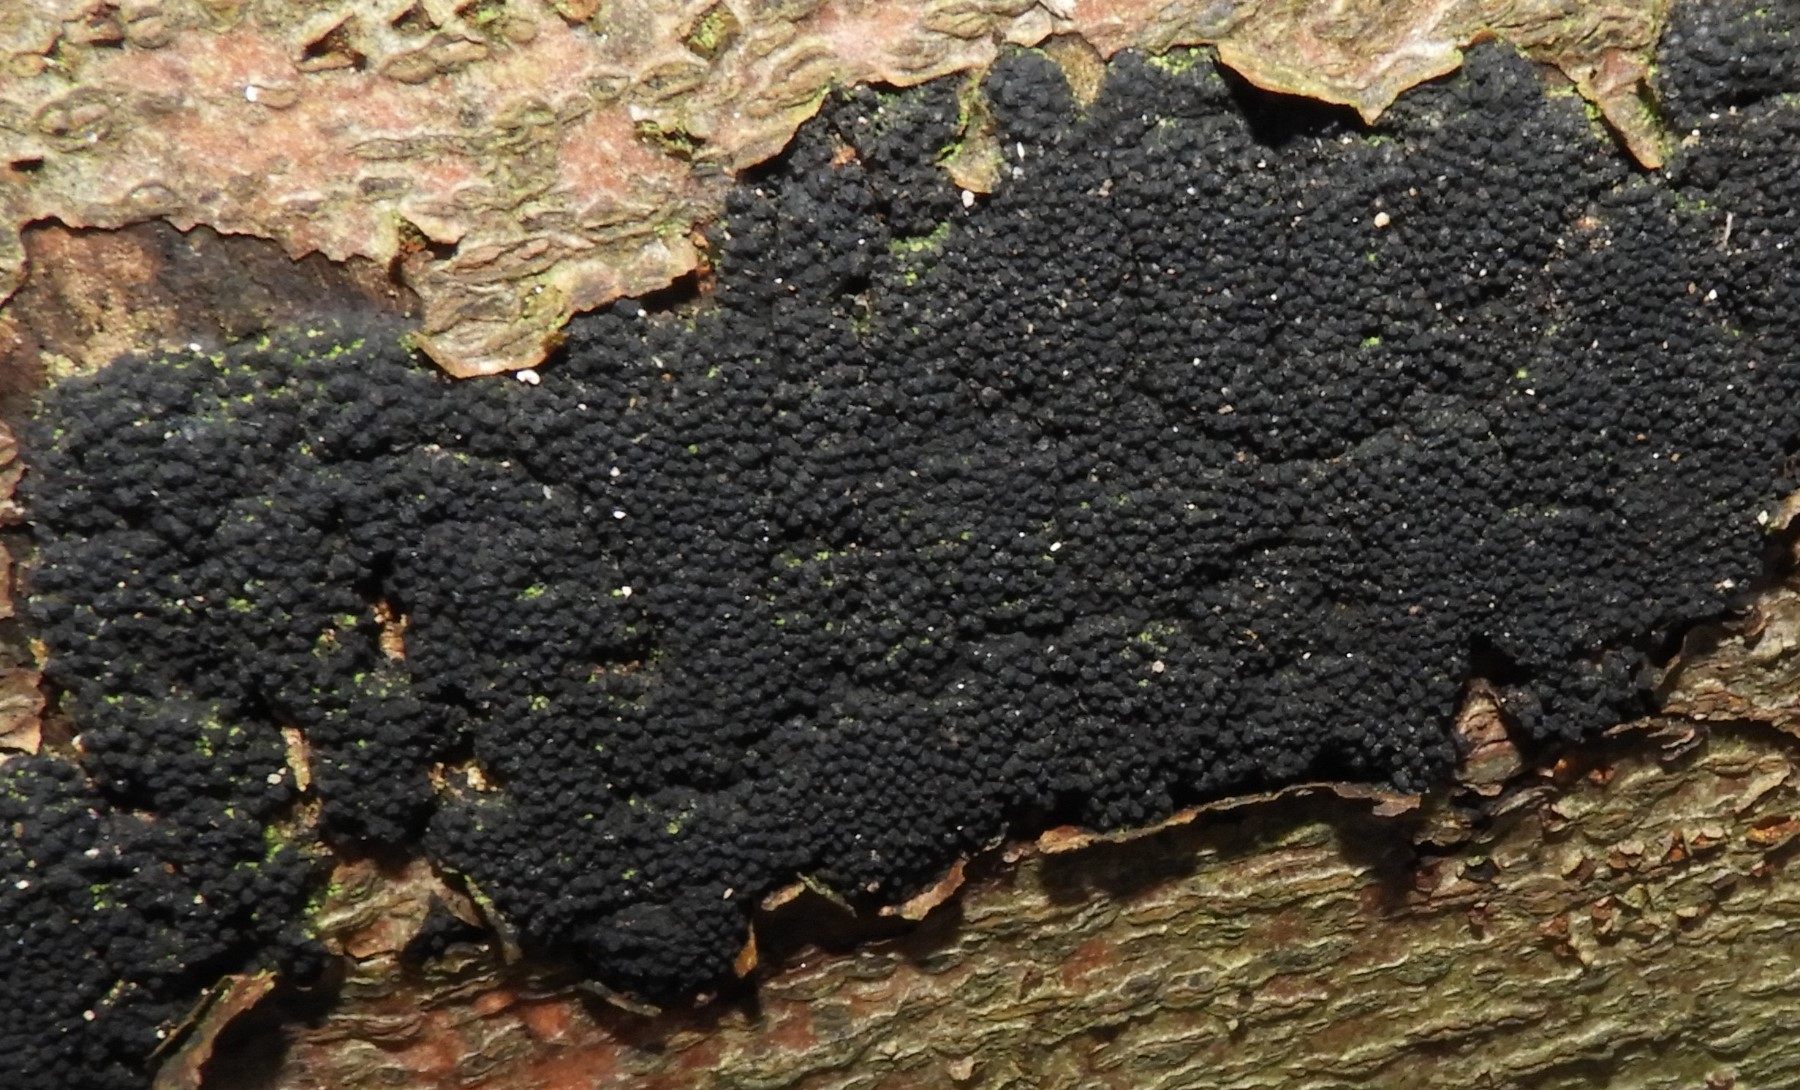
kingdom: Fungi
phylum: Ascomycota
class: Sordariomycetes
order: Xylariales
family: Diatrypaceae
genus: Eutypa
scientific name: Eutypa spinosa
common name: grov kulskorpe
